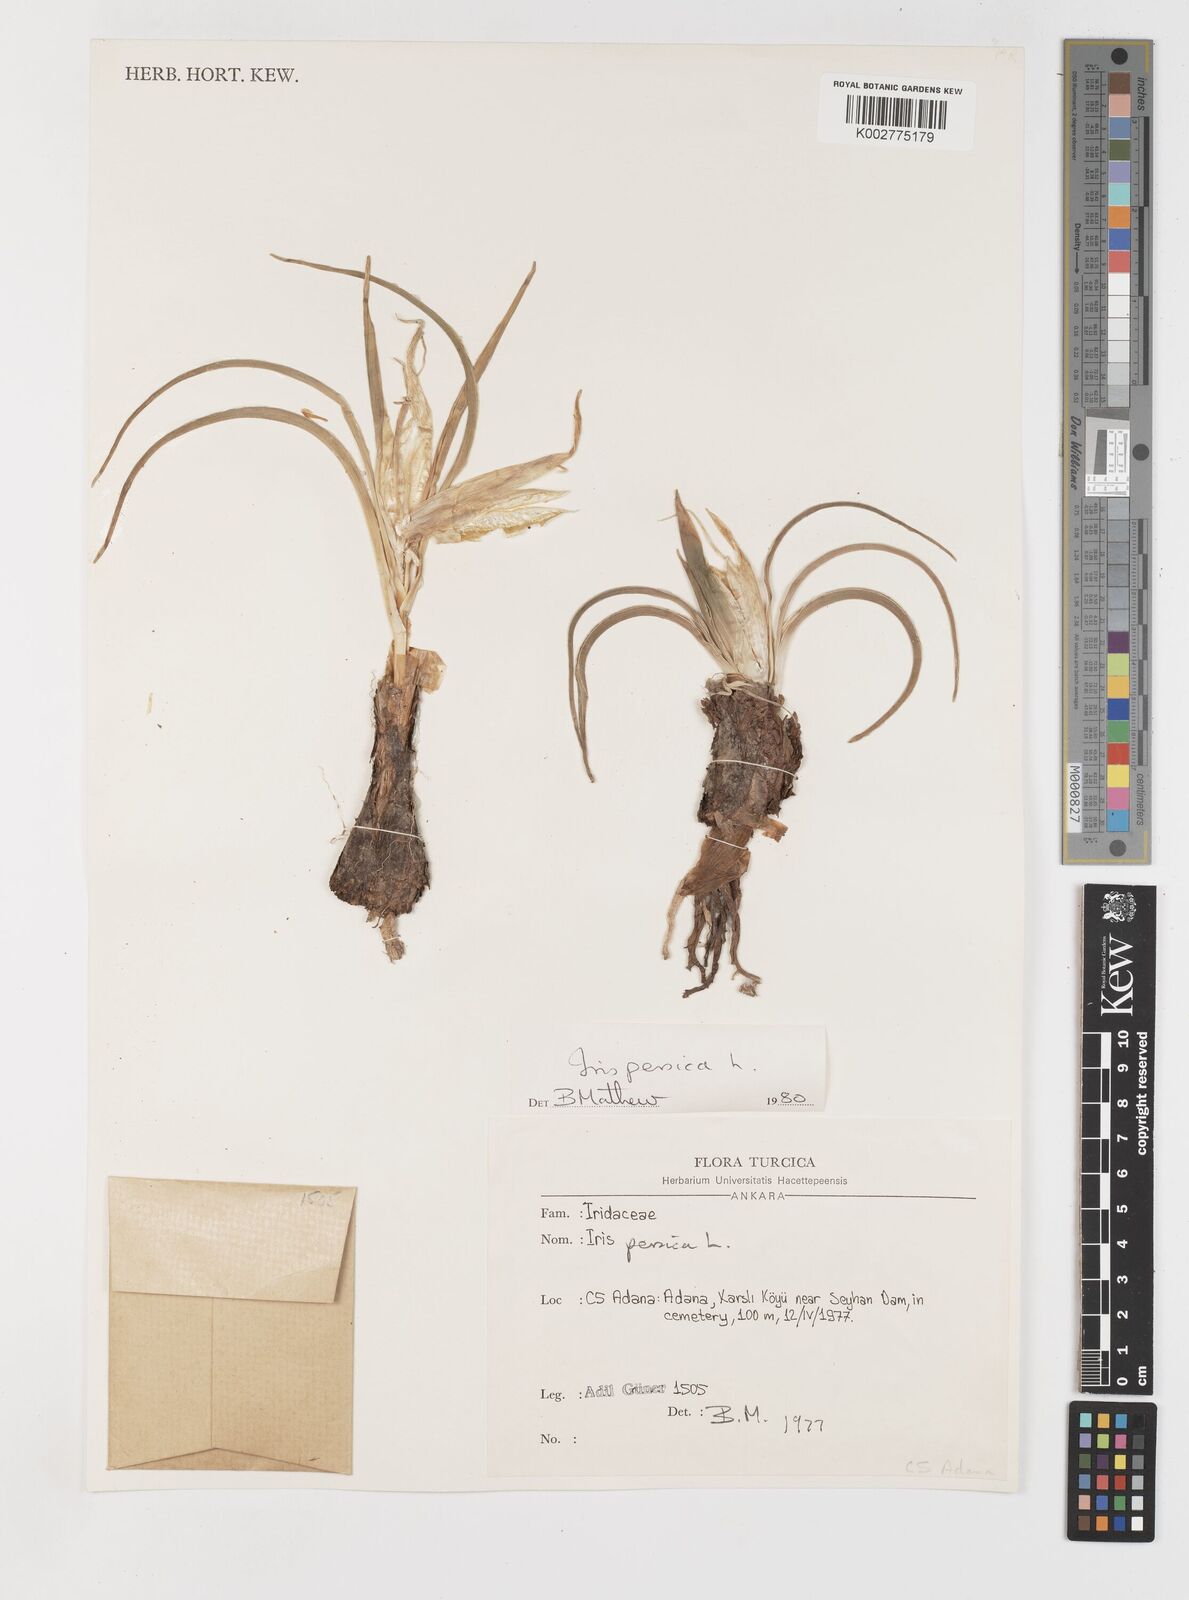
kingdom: Plantae
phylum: Tracheophyta
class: Liliopsida
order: Asparagales
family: Iridaceae
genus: Iris
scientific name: Iris persica
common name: Persian iris
